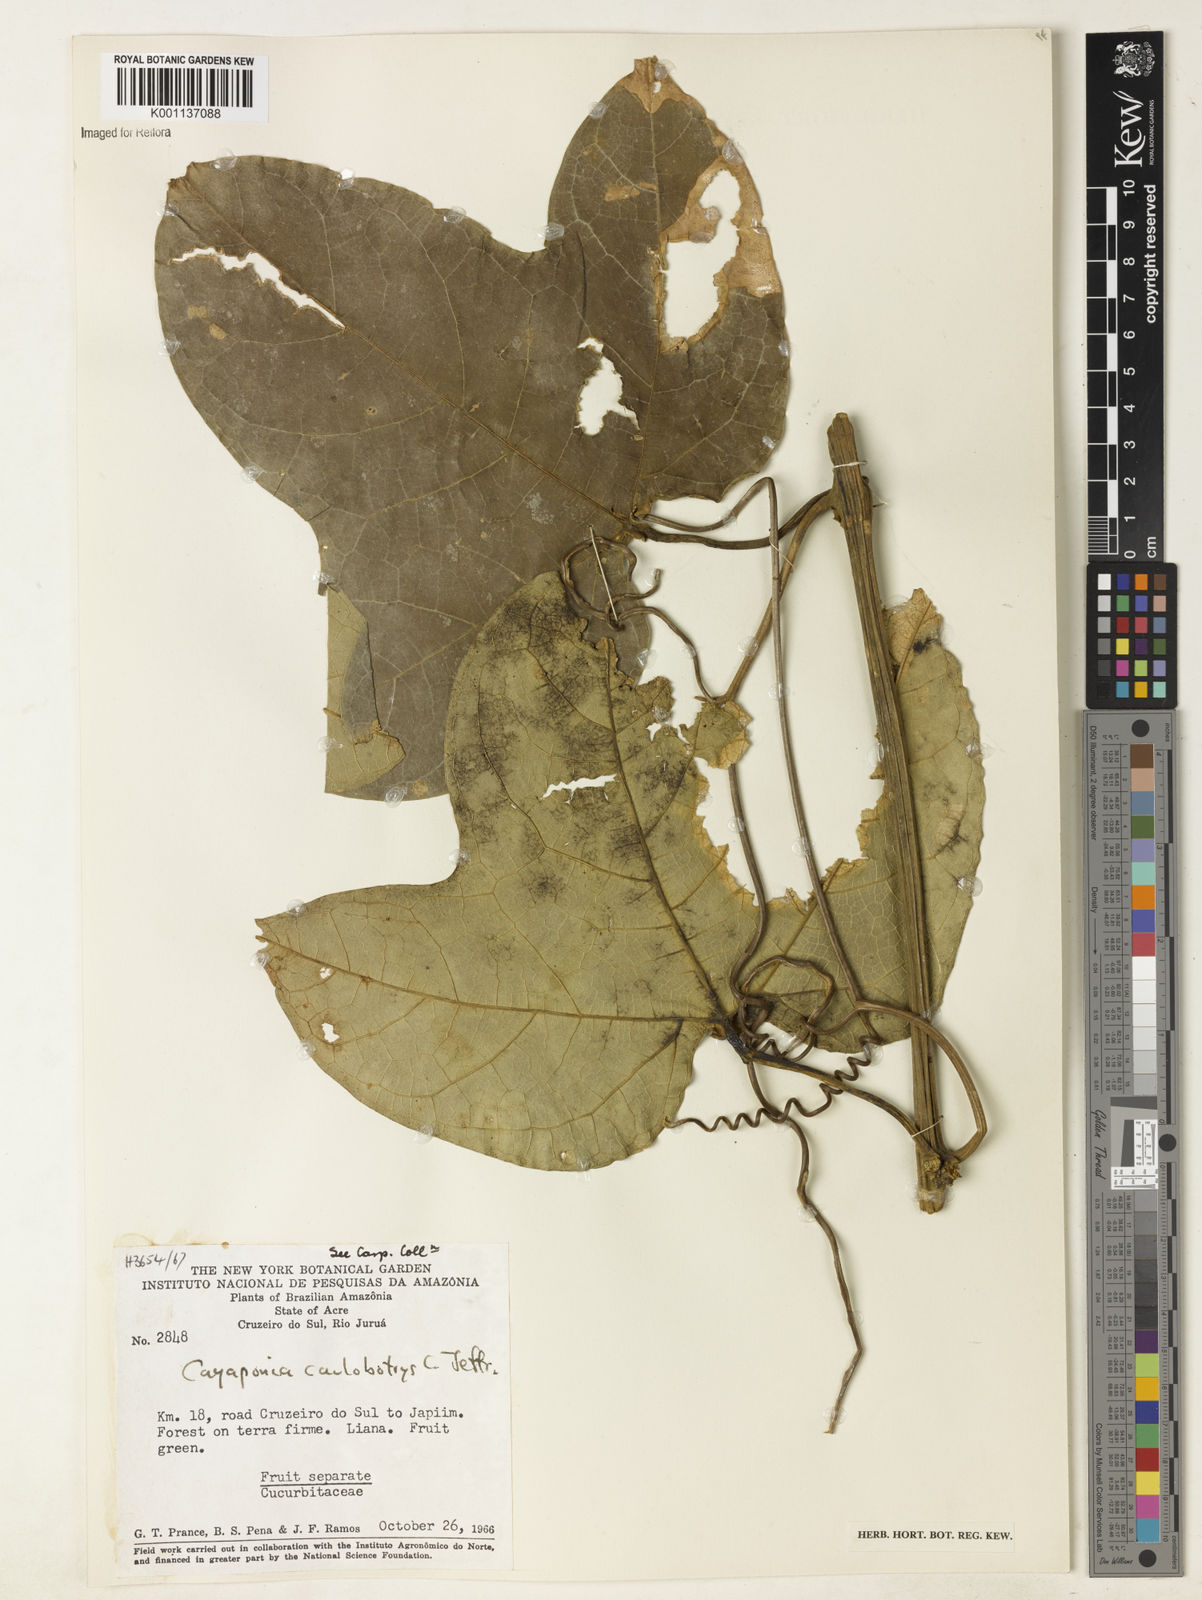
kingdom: Plantae
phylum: Tracheophyta
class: Magnoliopsida
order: Cucurbitales
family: Cucurbitaceae
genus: Cayaponia
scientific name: Cayaponia caulobotrys
